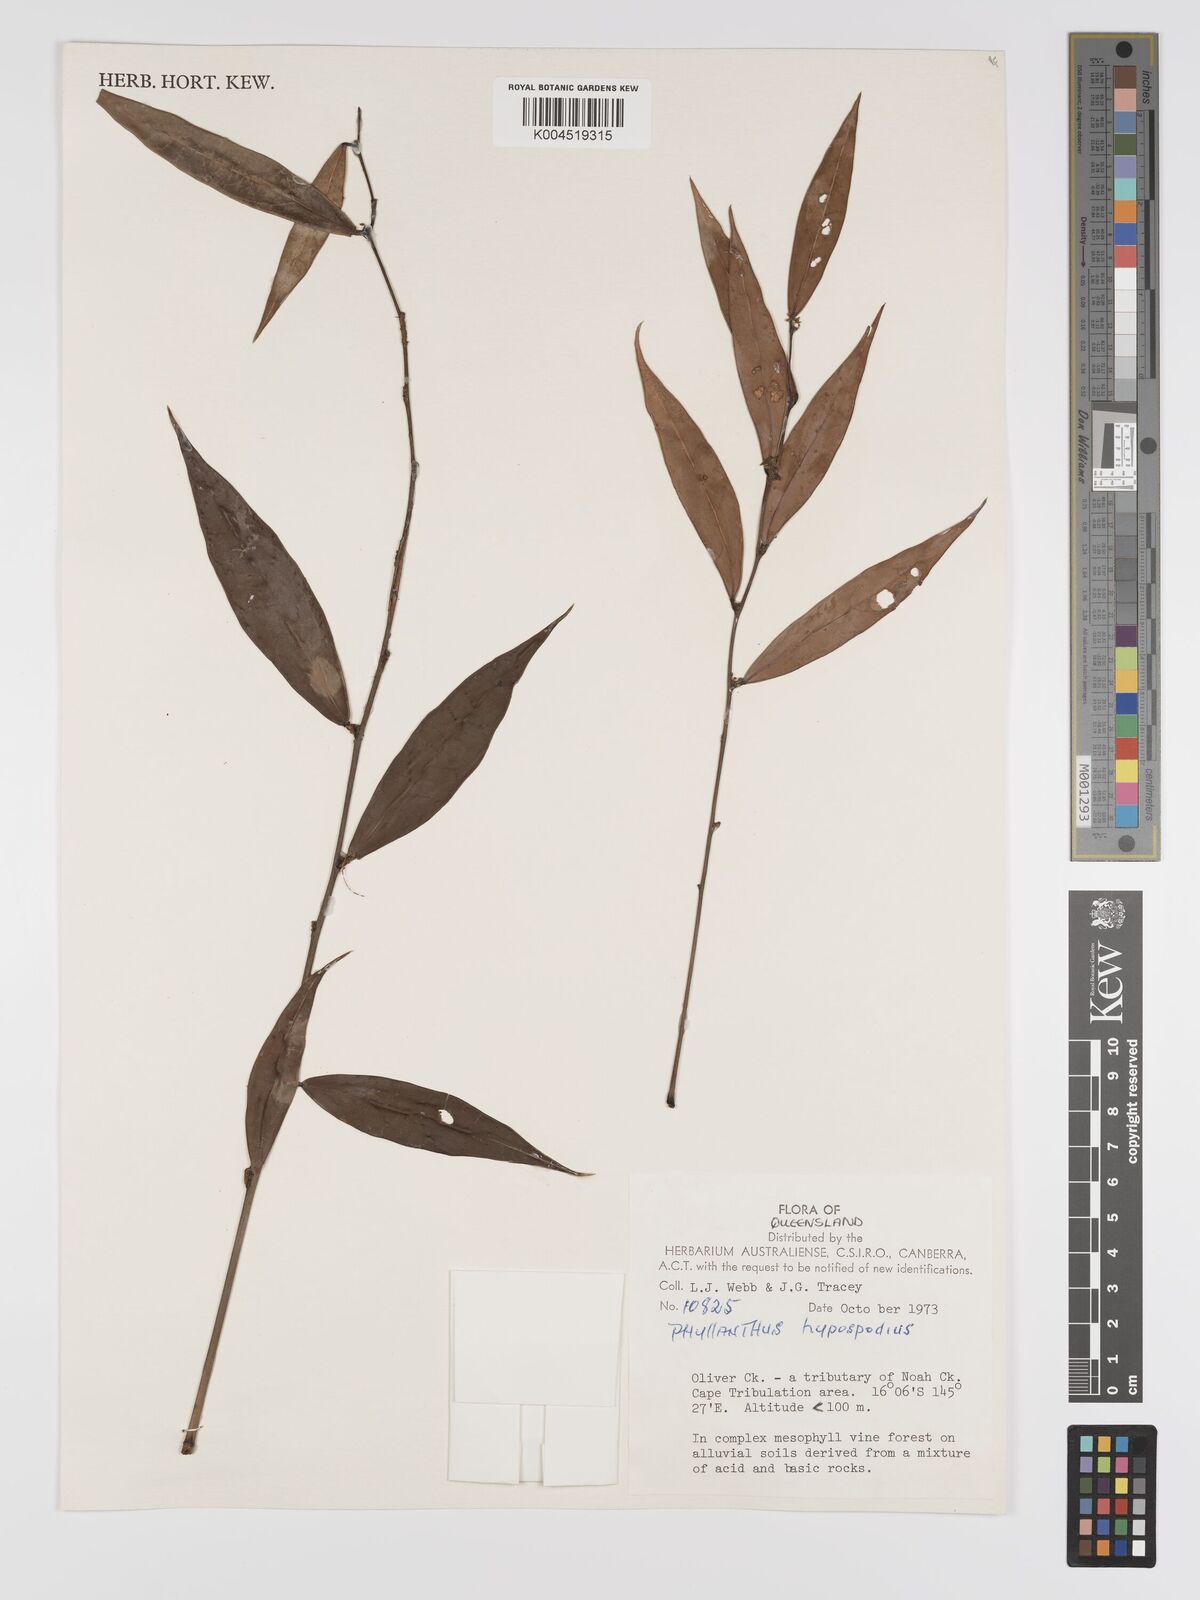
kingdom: Plantae
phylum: Tracheophyta
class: Magnoliopsida
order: Malpighiales
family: Phyllanthaceae
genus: Phyllanthus
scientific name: Phyllanthus hypospodius
